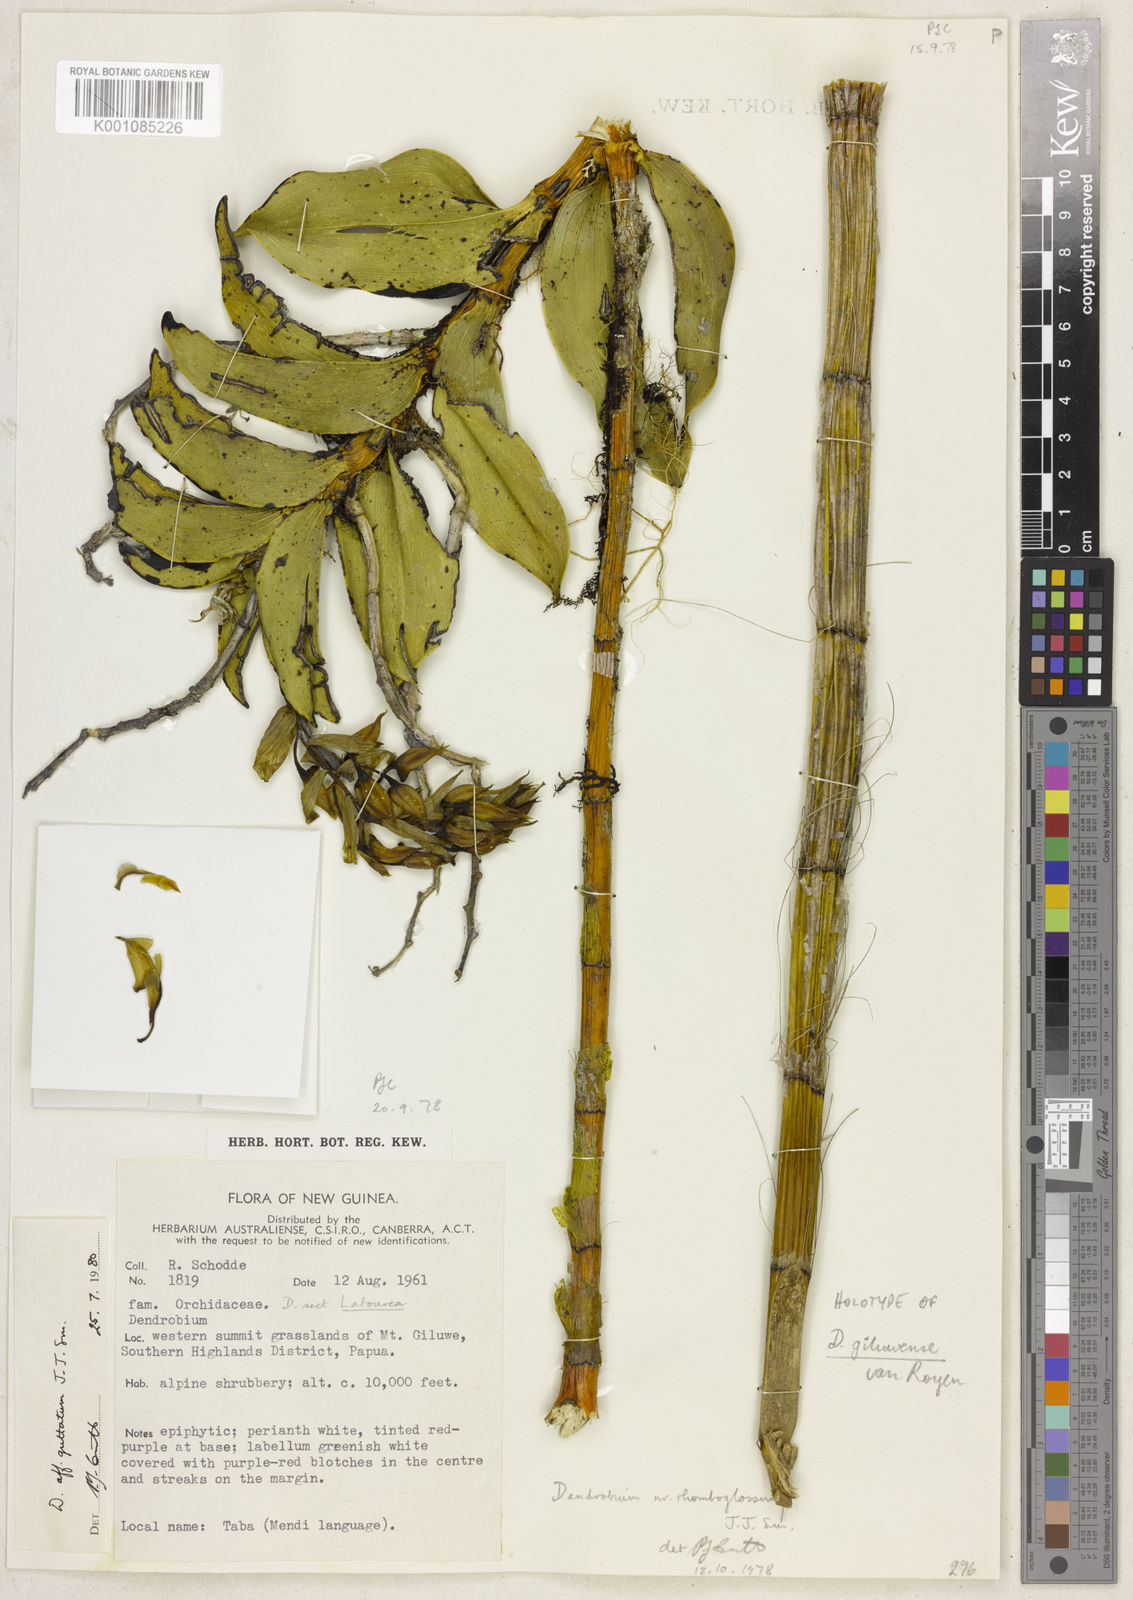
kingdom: Plantae
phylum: Tracheophyta
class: Liliopsida
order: Asparagales
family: Orchidaceae
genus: Dendrobium
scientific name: Dendrobium rigidifolium
